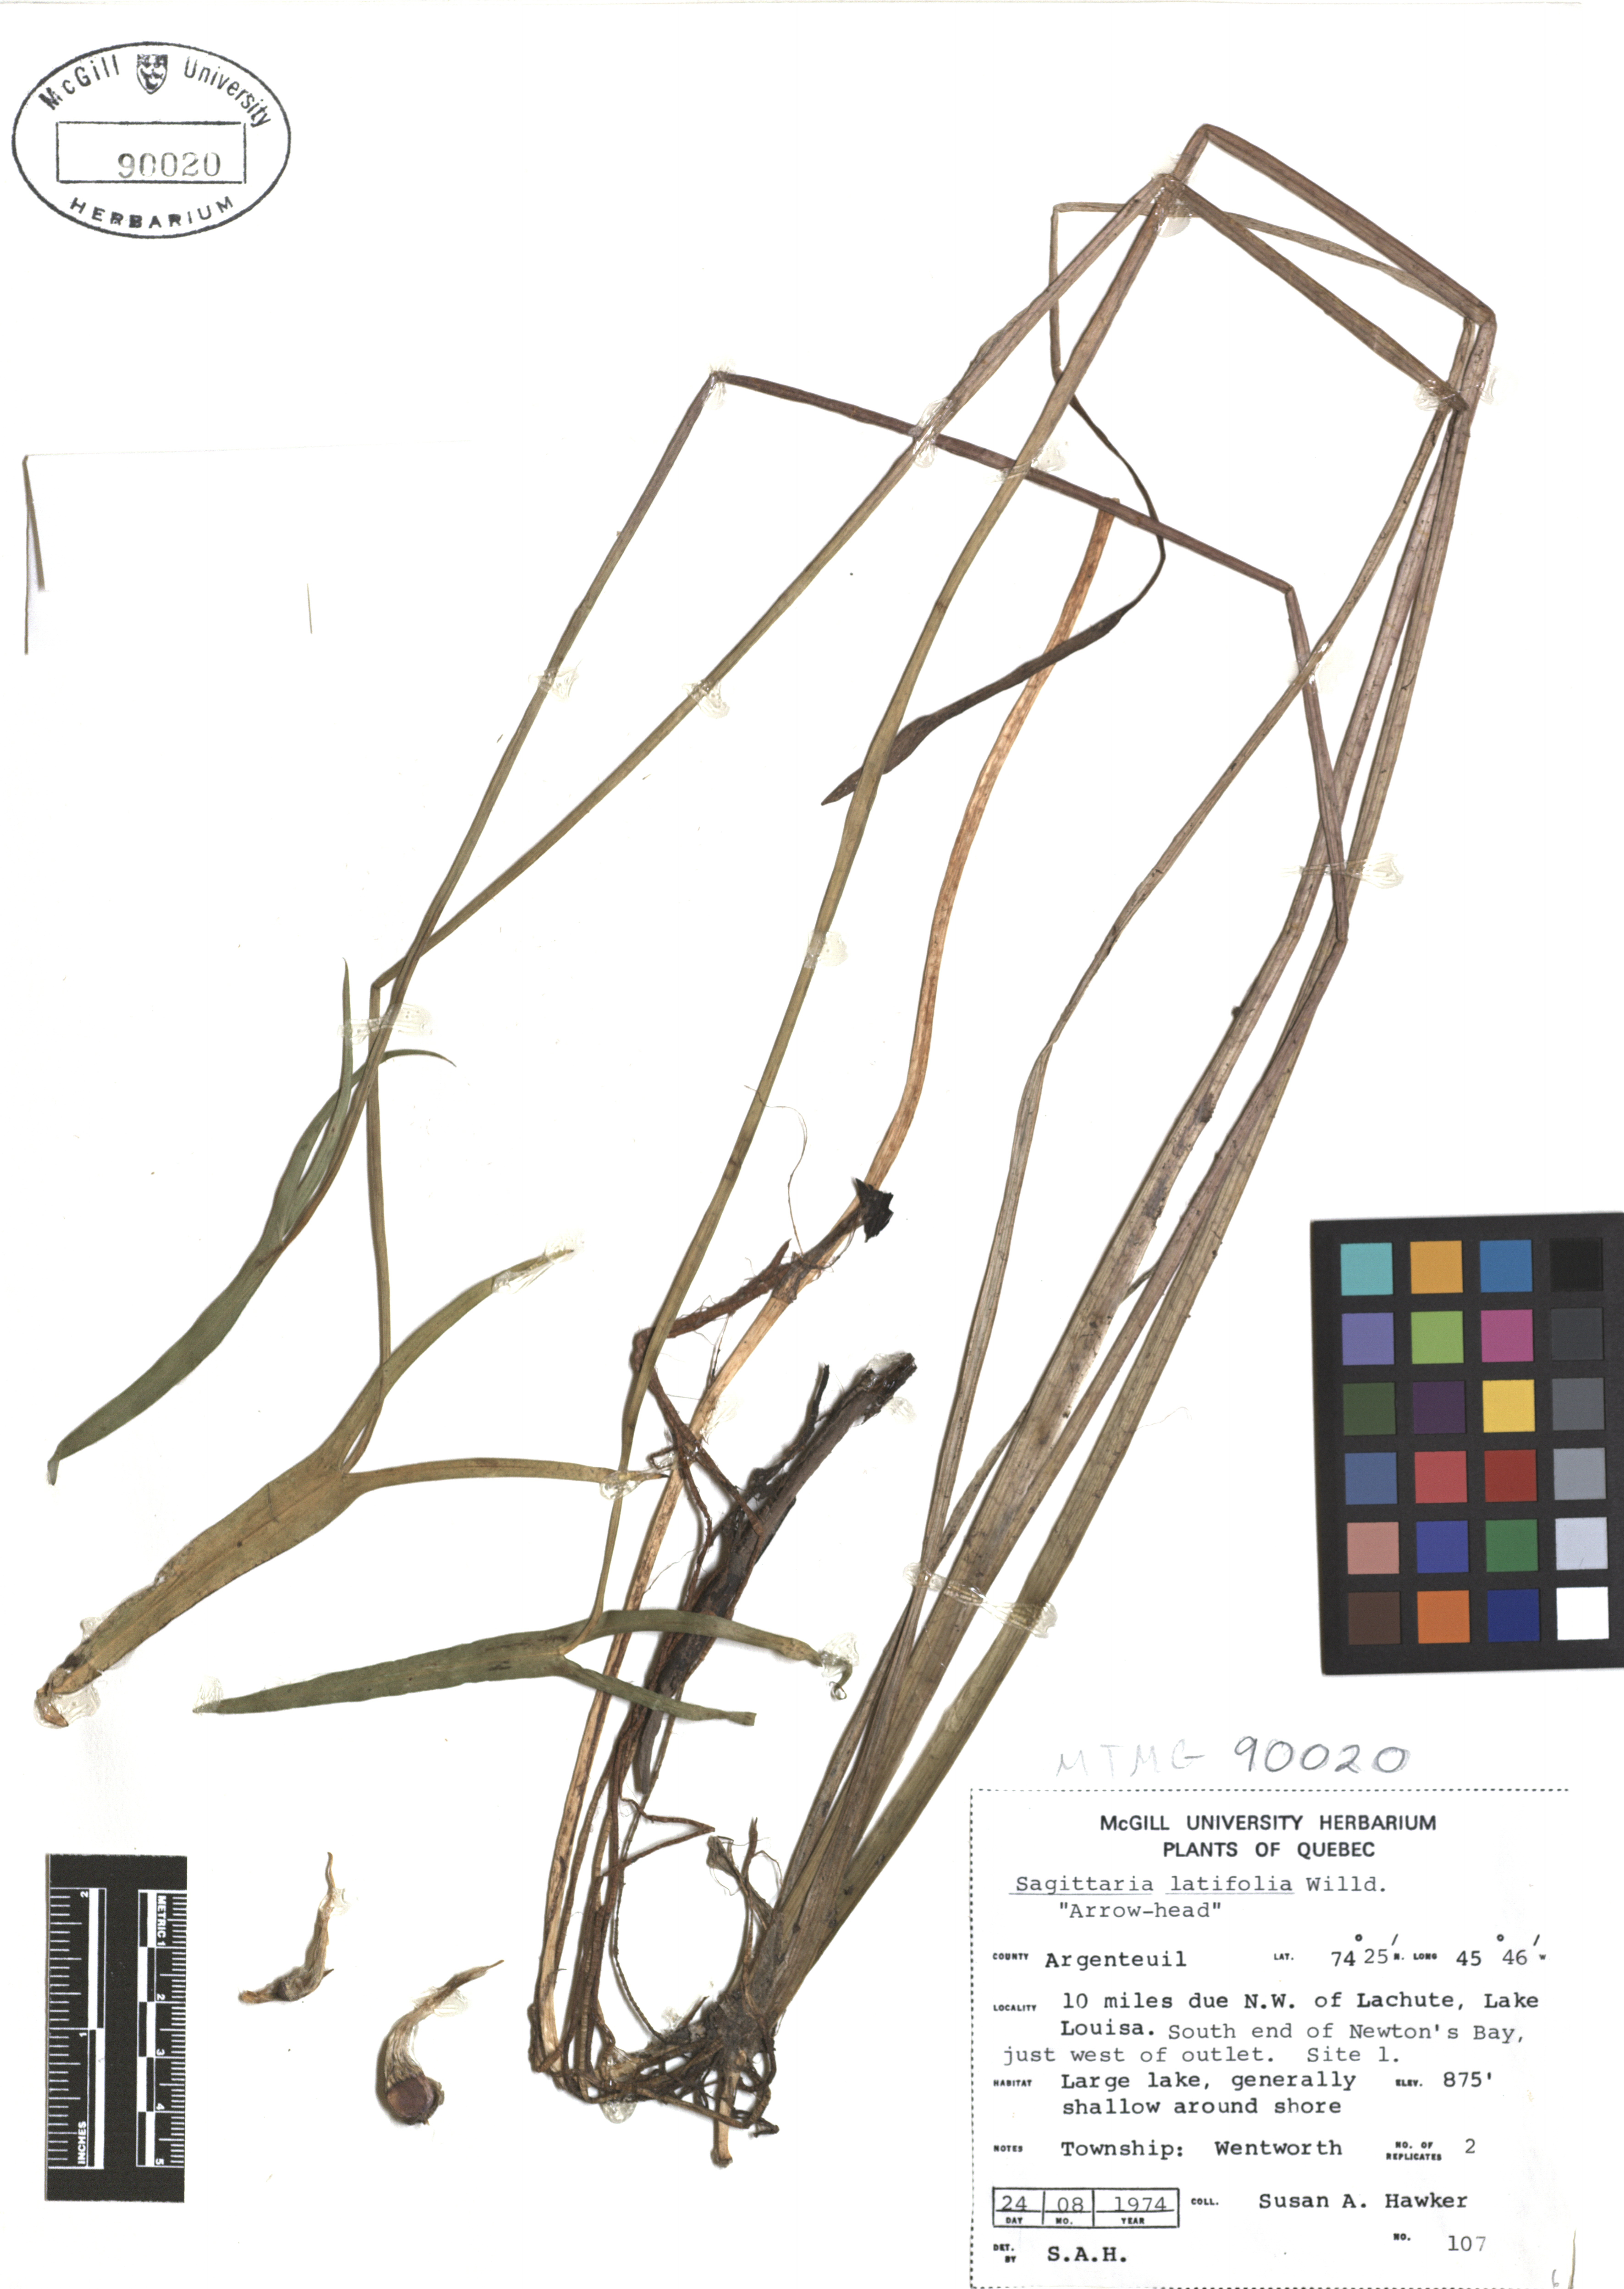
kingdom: Plantae
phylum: Tracheophyta
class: Liliopsida
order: Alismatales
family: Alismataceae
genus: Sagittaria
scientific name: Sagittaria latifolia
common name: Duck-potato
